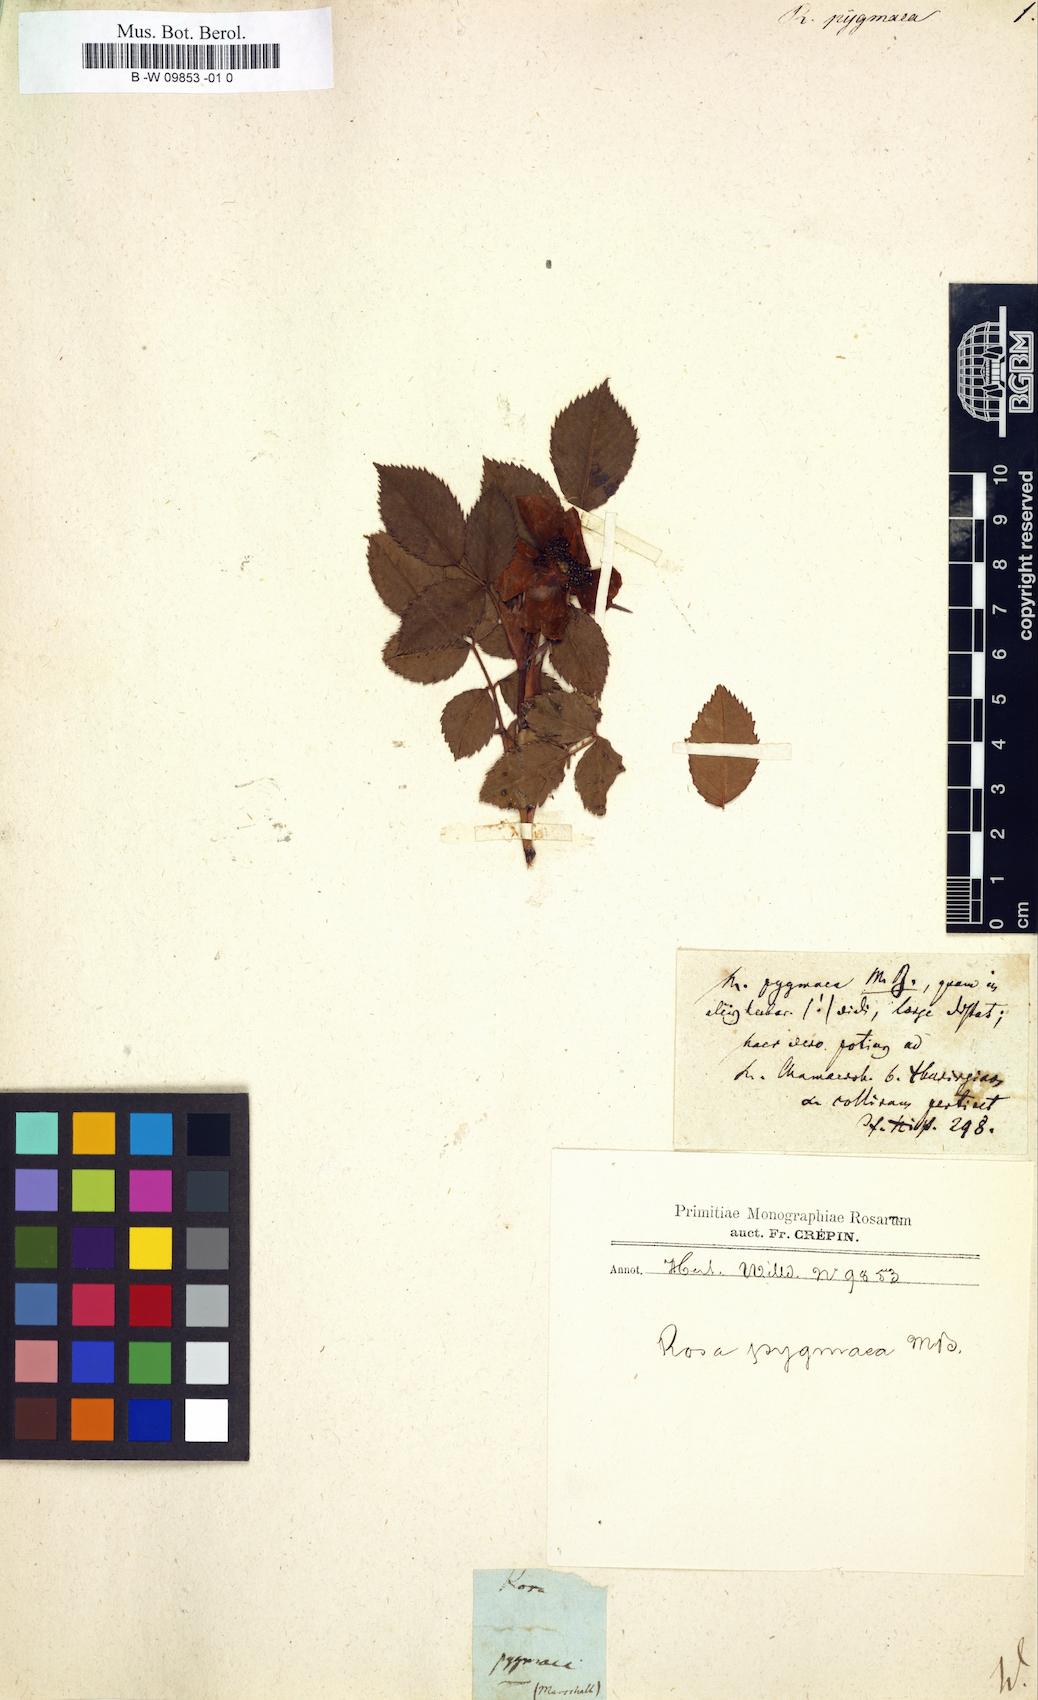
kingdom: Plantae
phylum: Tracheophyta
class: Magnoliopsida
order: Rosales
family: Rosaceae
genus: Rosa
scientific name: Rosa gallica
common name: French rose
